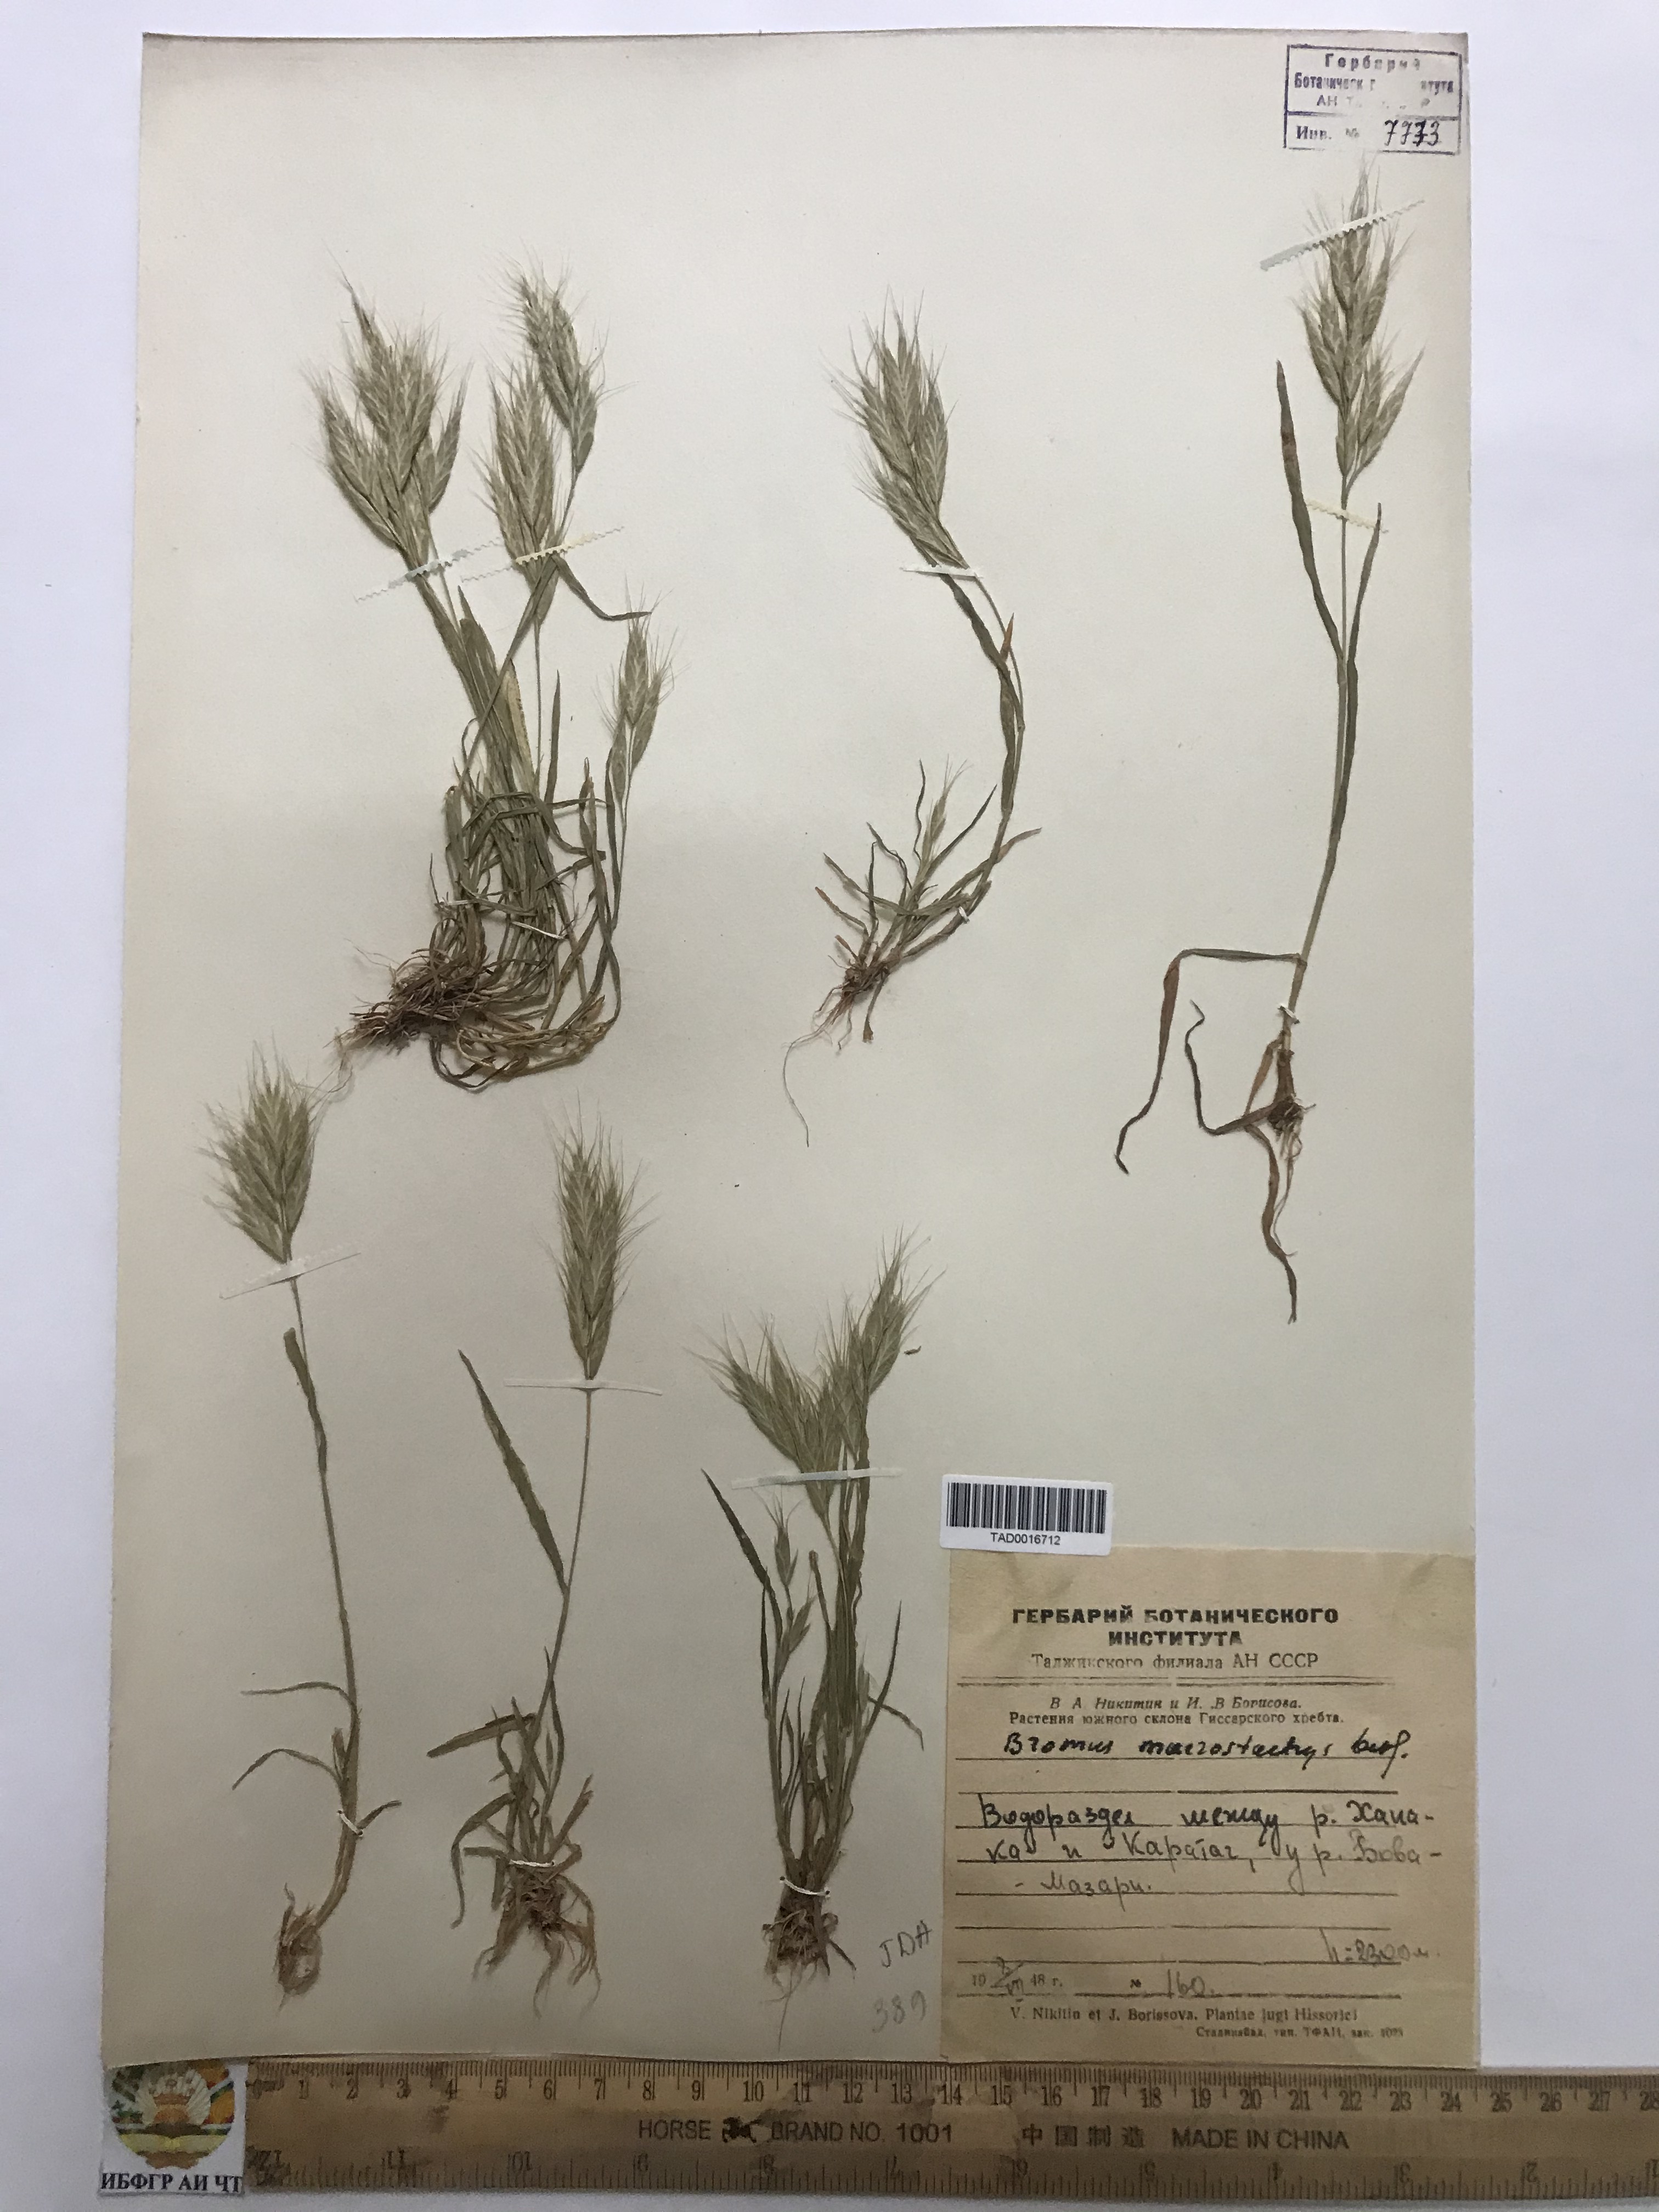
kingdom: Plantae
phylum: Tracheophyta
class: Liliopsida
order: Poales
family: Poaceae
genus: Bromus
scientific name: Bromus lanceolatus
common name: Mediterranean brome
